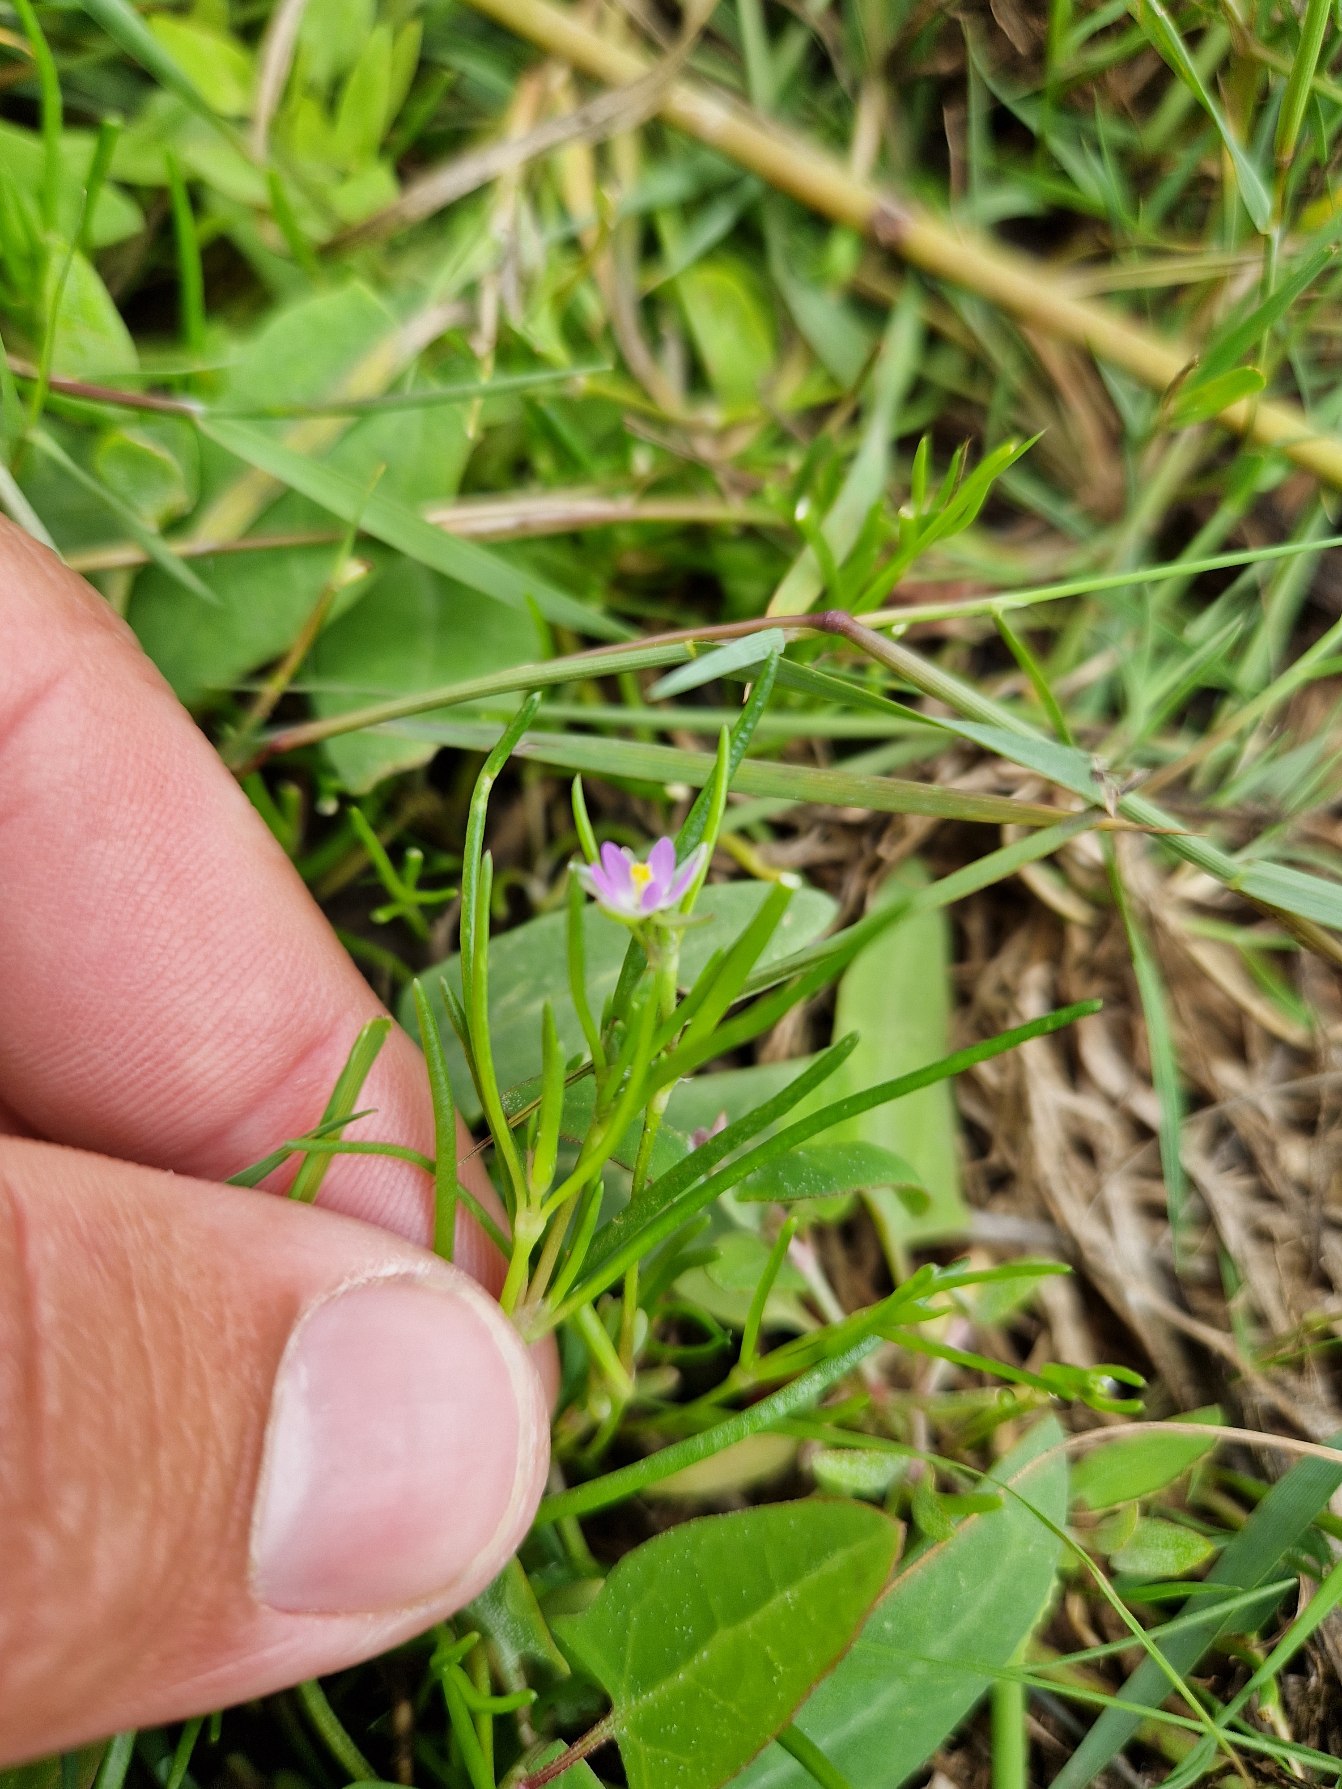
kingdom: Plantae
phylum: Tracheophyta
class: Magnoliopsida
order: Caryophyllales
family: Caryophyllaceae
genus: Spergularia
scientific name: Spergularia marina
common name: Kødet hindeknæ
